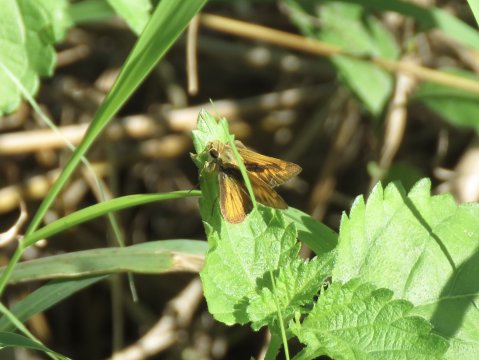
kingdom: Animalia
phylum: Arthropoda
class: Insecta
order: Lepidoptera
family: Hesperiidae
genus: Polites
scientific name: Polites vibex
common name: Whirlabout
